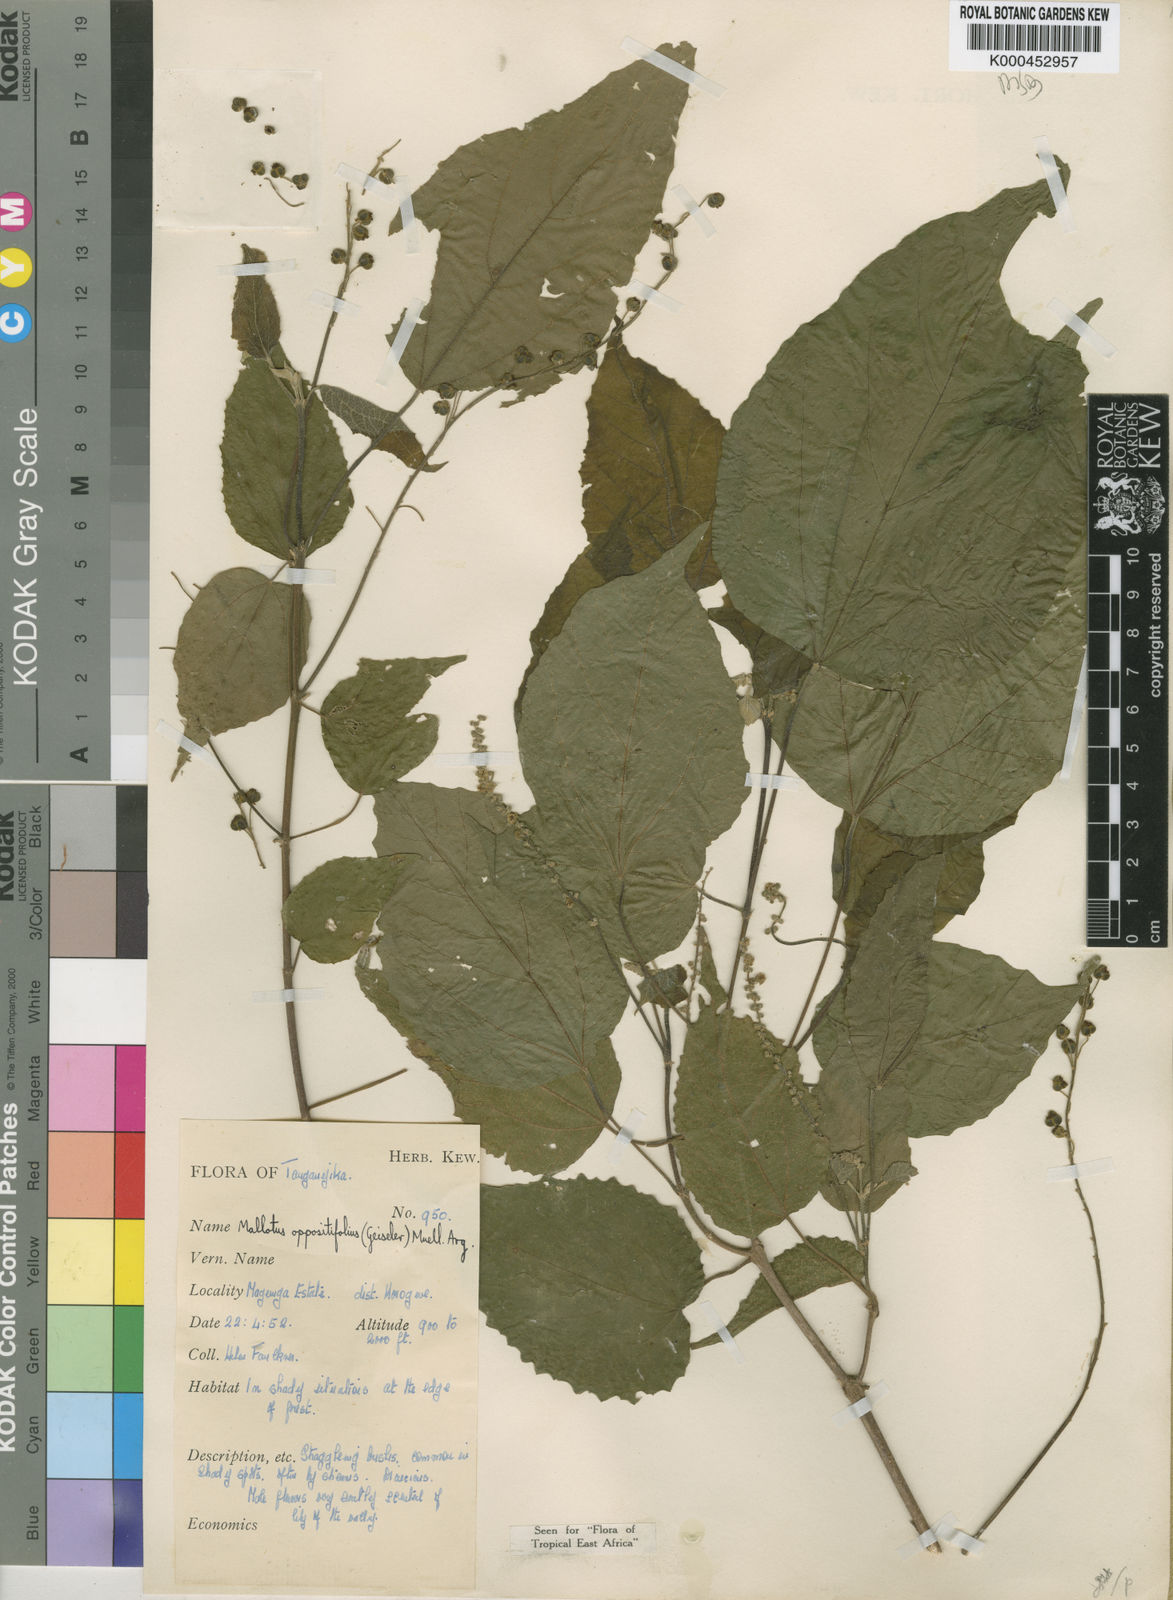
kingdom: Plantae
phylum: Tracheophyta
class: Magnoliopsida
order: Malpighiales
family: Euphorbiaceae
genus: Mallotus
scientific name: Mallotus
